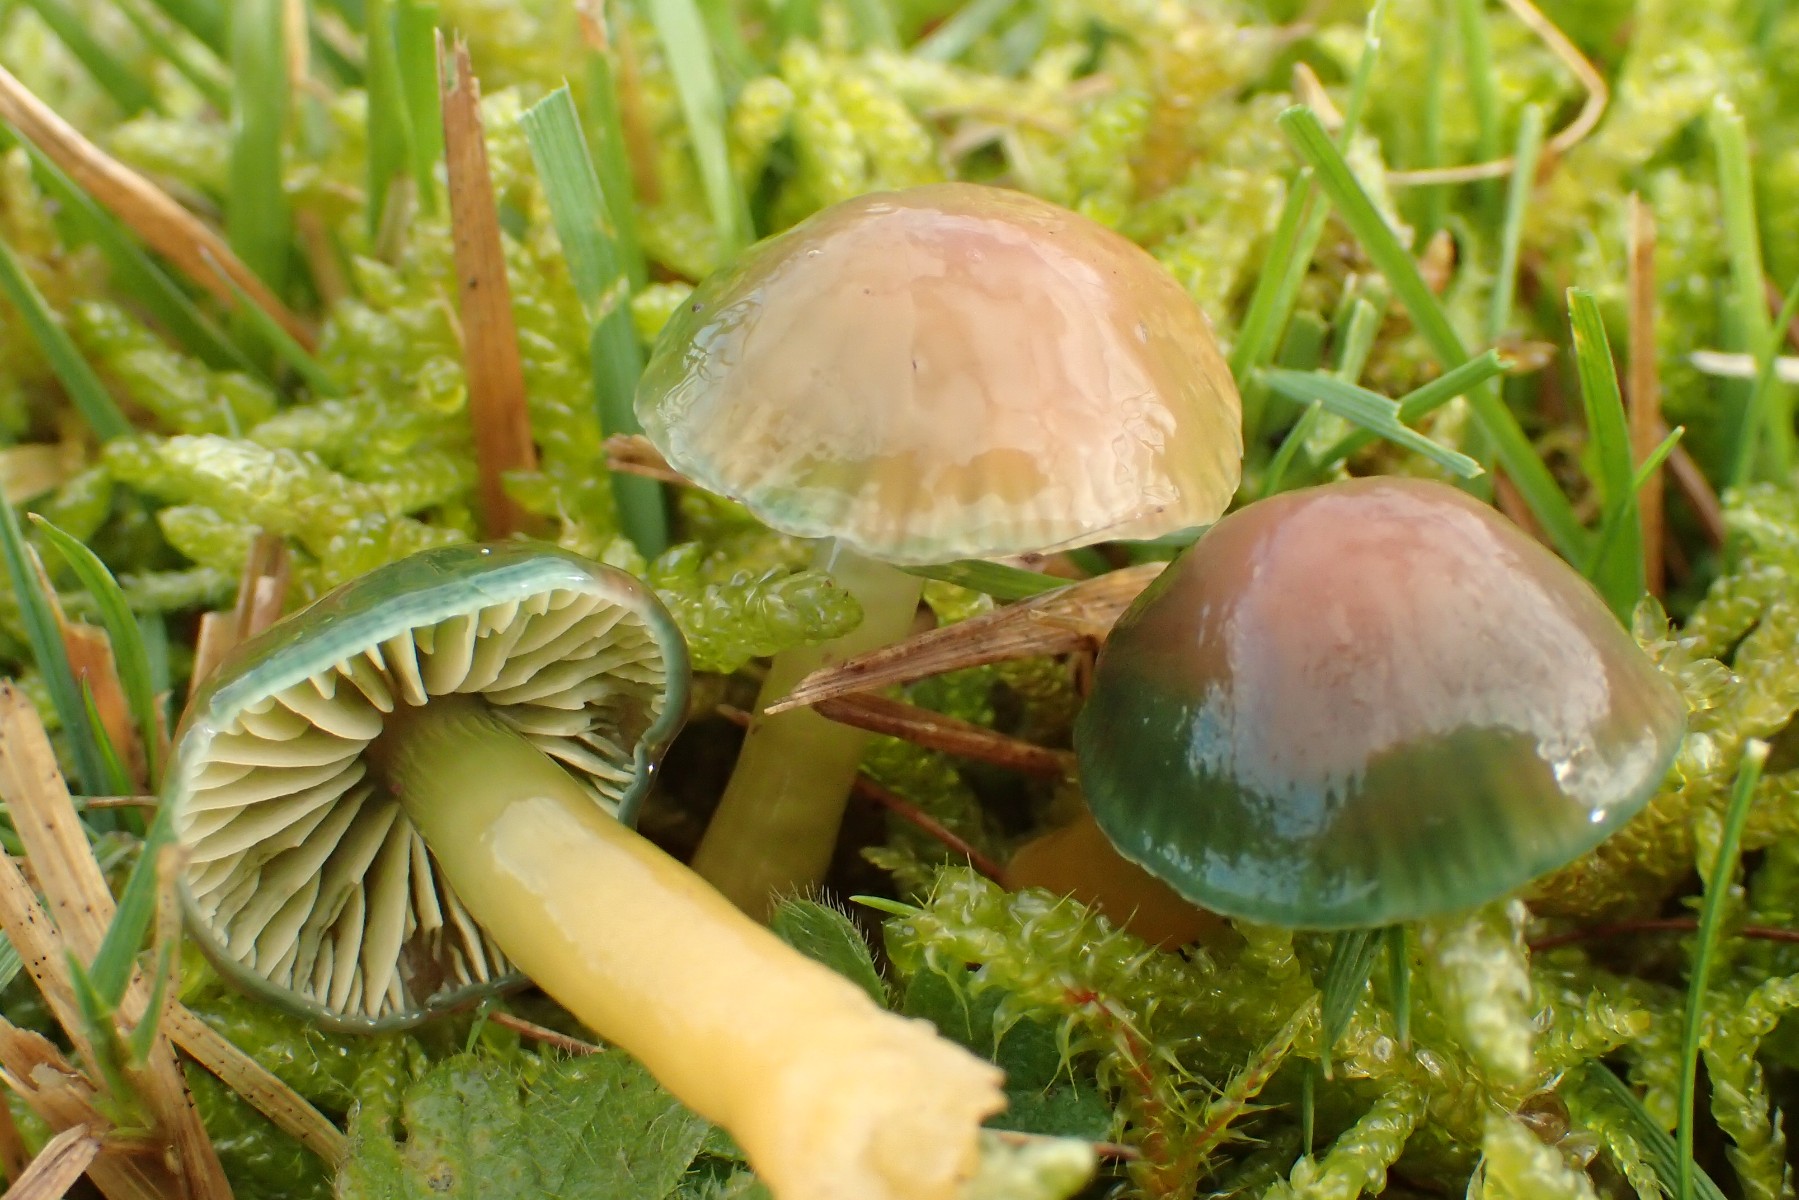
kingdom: Fungi
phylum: Basidiomycota
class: Agaricomycetes
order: Agaricales
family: Hygrophoraceae
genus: Gliophorus
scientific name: Gliophorus psittacinus
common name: papegøje-vokshat
